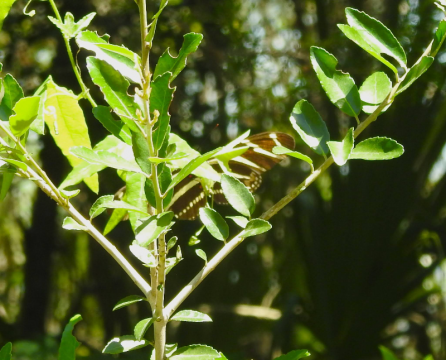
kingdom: Animalia
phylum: Arthropoda
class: Insecta
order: Lepidoptera
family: Nymphalidae
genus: Heliconius
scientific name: Heliconius charithonia
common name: Zebra Longwing
